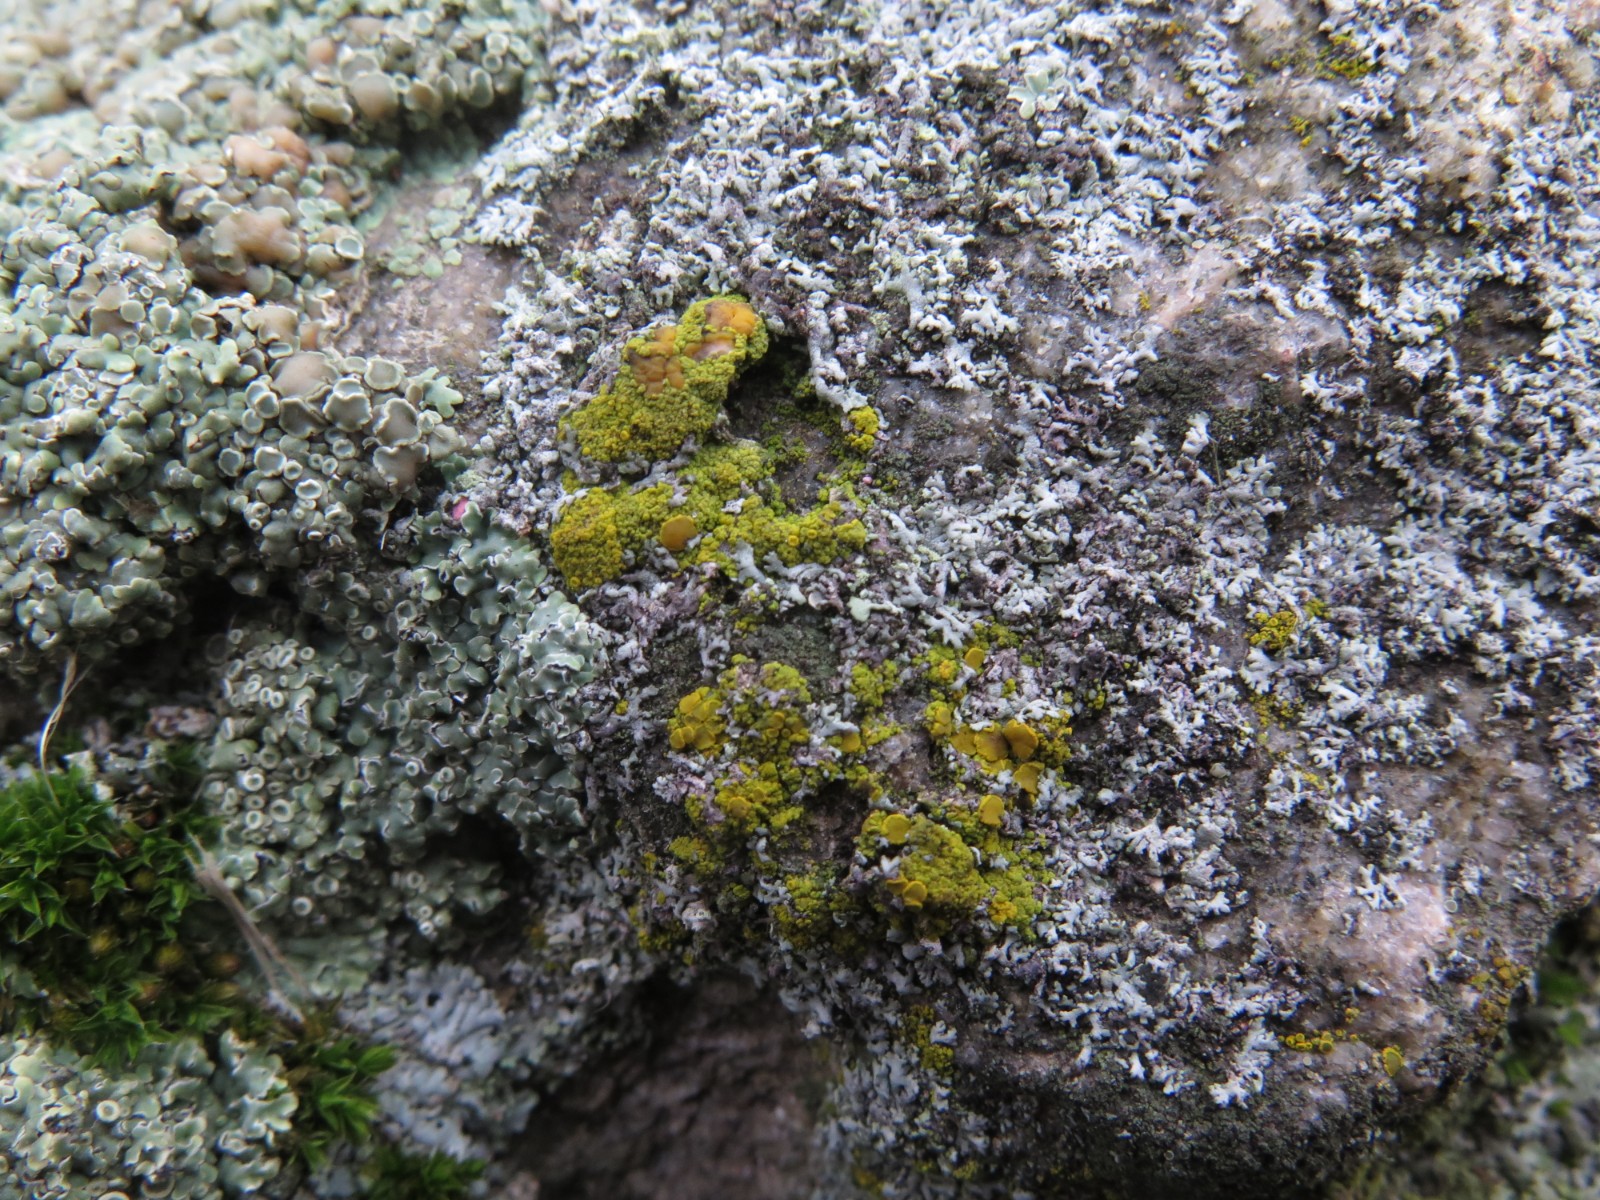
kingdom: Fungi
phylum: Ascomycota
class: Candelariomycetes
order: Candelariales
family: Candelariaceae
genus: Candelariella
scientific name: Candelariella vitellina
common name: almindelig æggeblommelav
